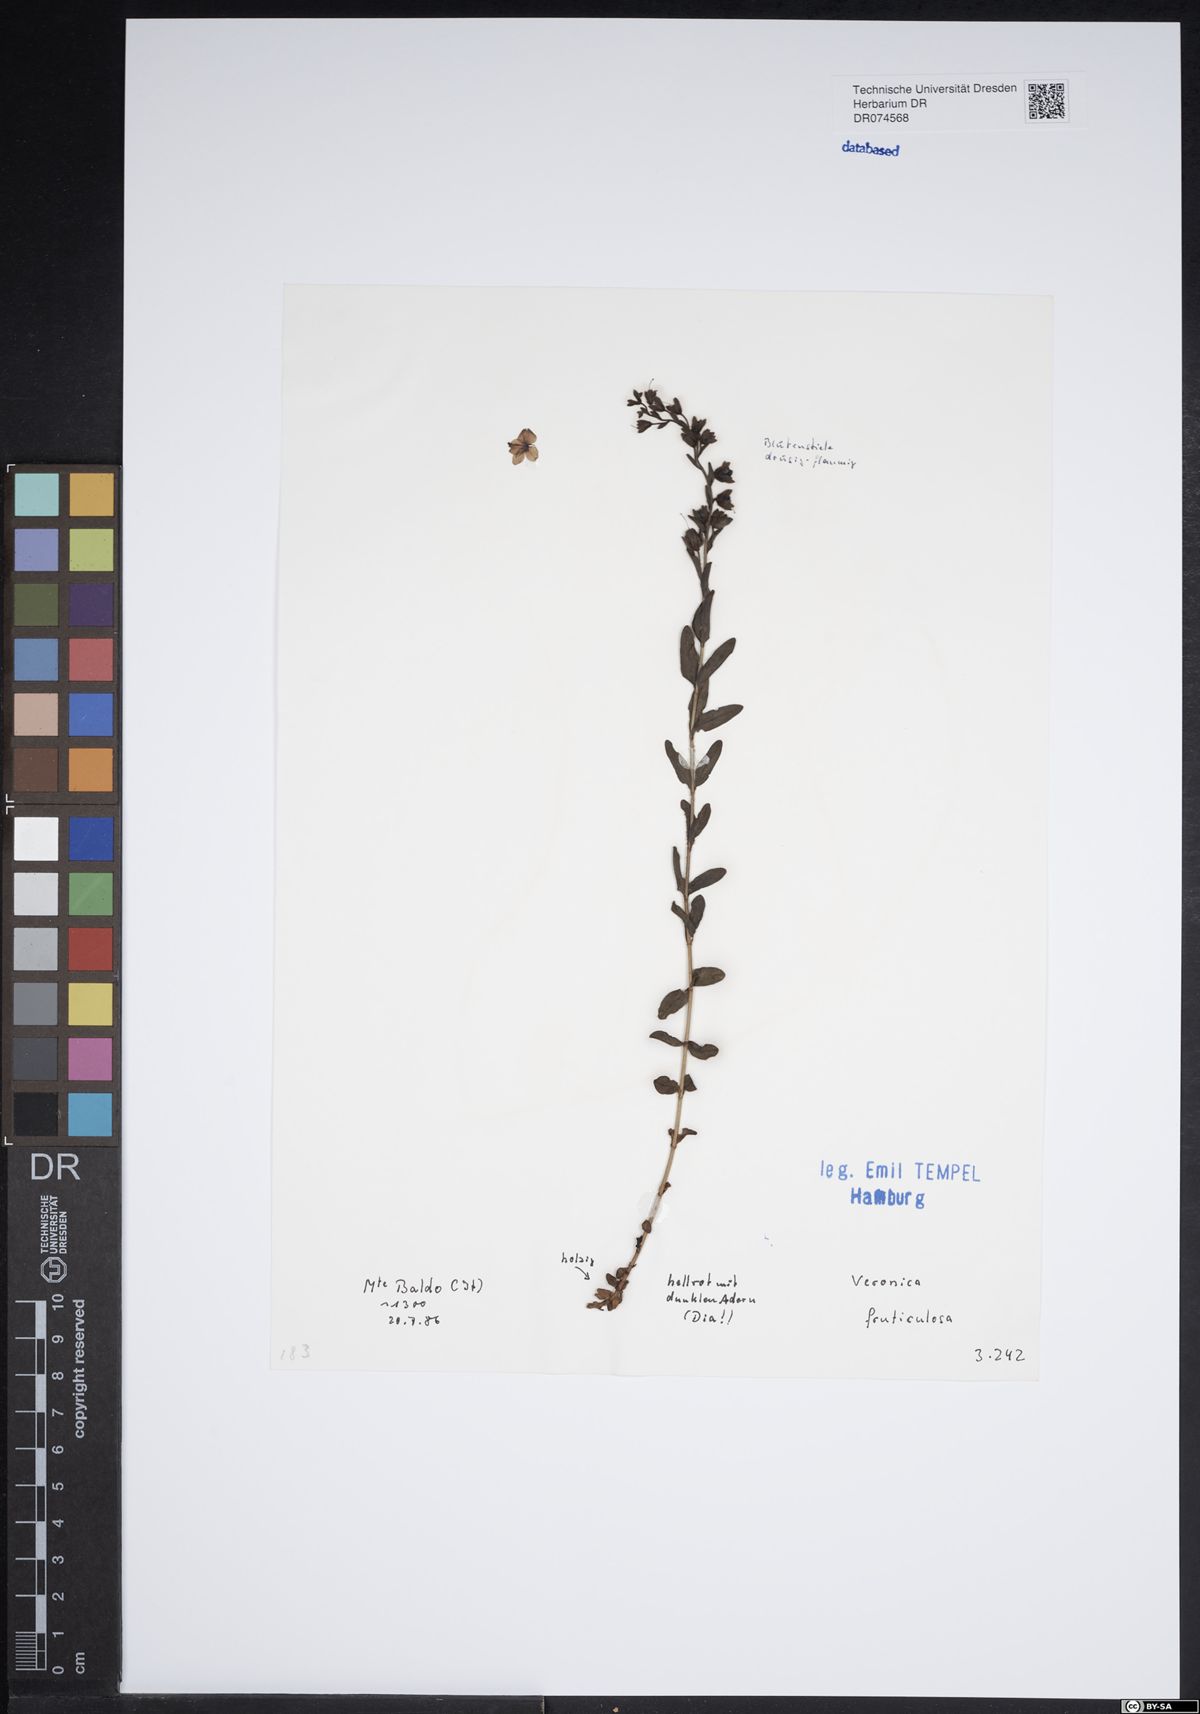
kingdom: Plantae
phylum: Tracheophyta
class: Magnoliopsida
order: Lamiales
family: Plantaginaceae
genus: Veronica
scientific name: Veronica fruticulosa
